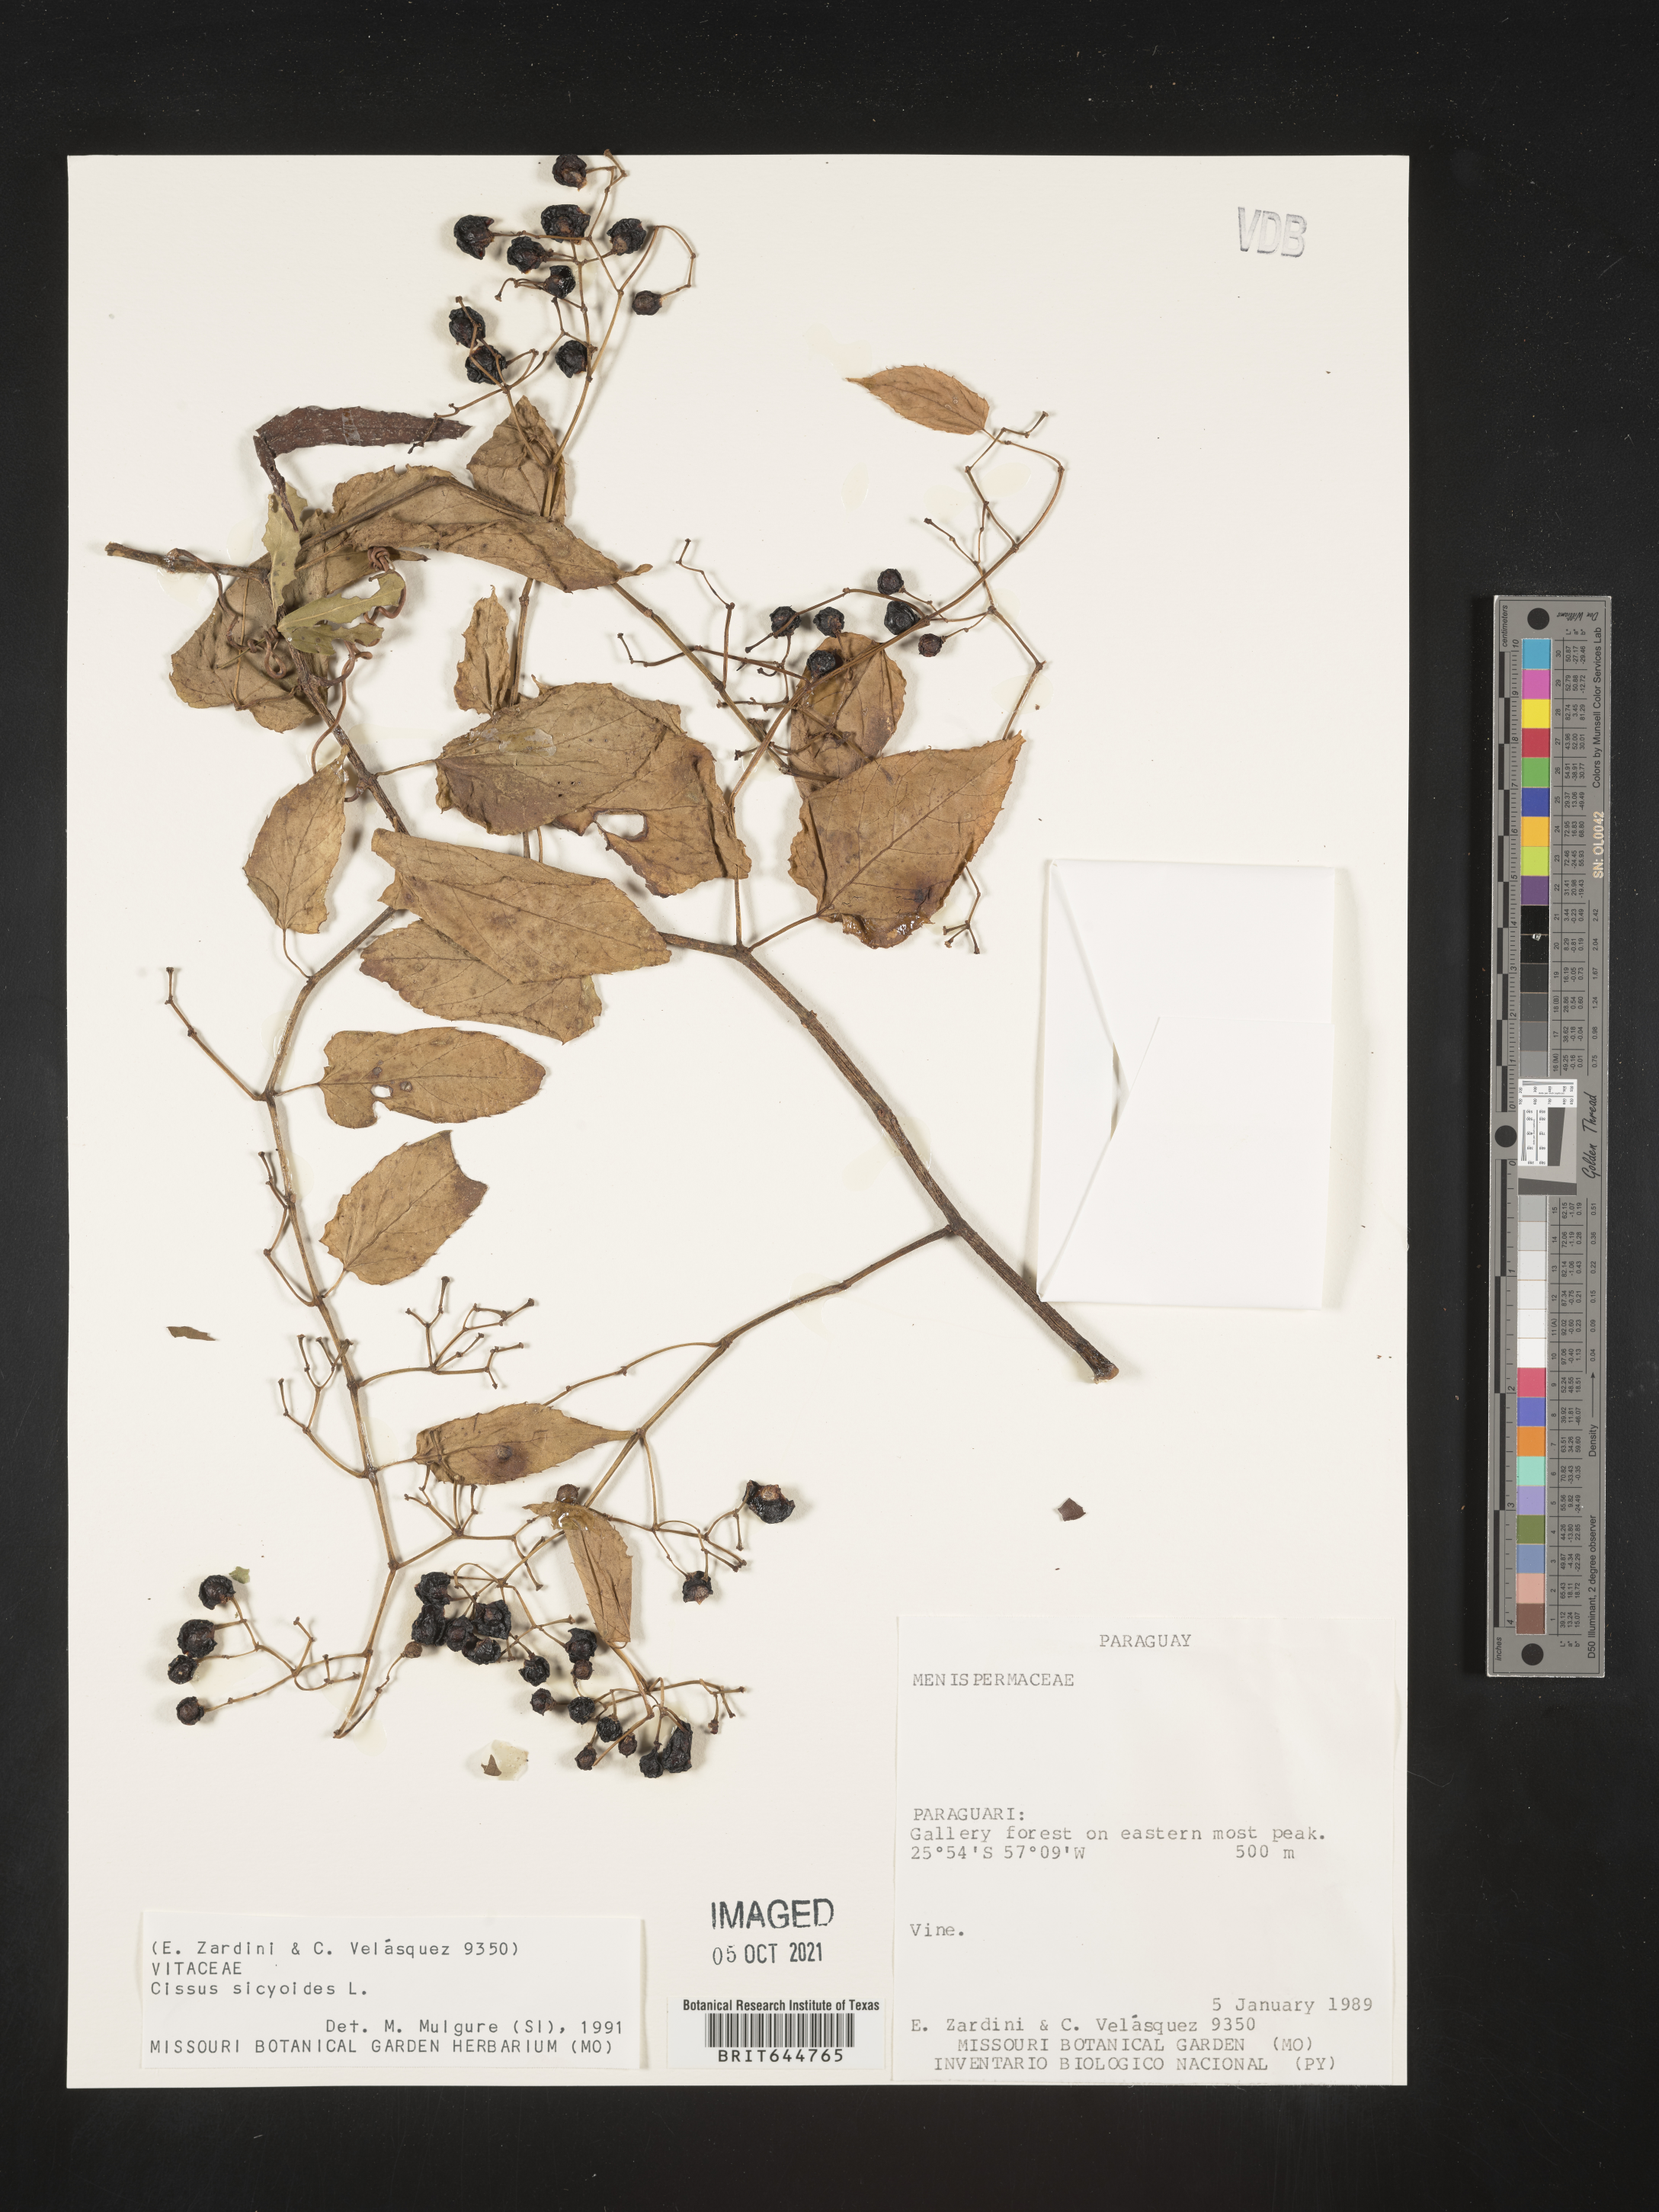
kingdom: Plantae
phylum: Tracheophyta
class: Magnoliopsida
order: Vitales
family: Vitaceae
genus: Cissus
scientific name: Cissus
